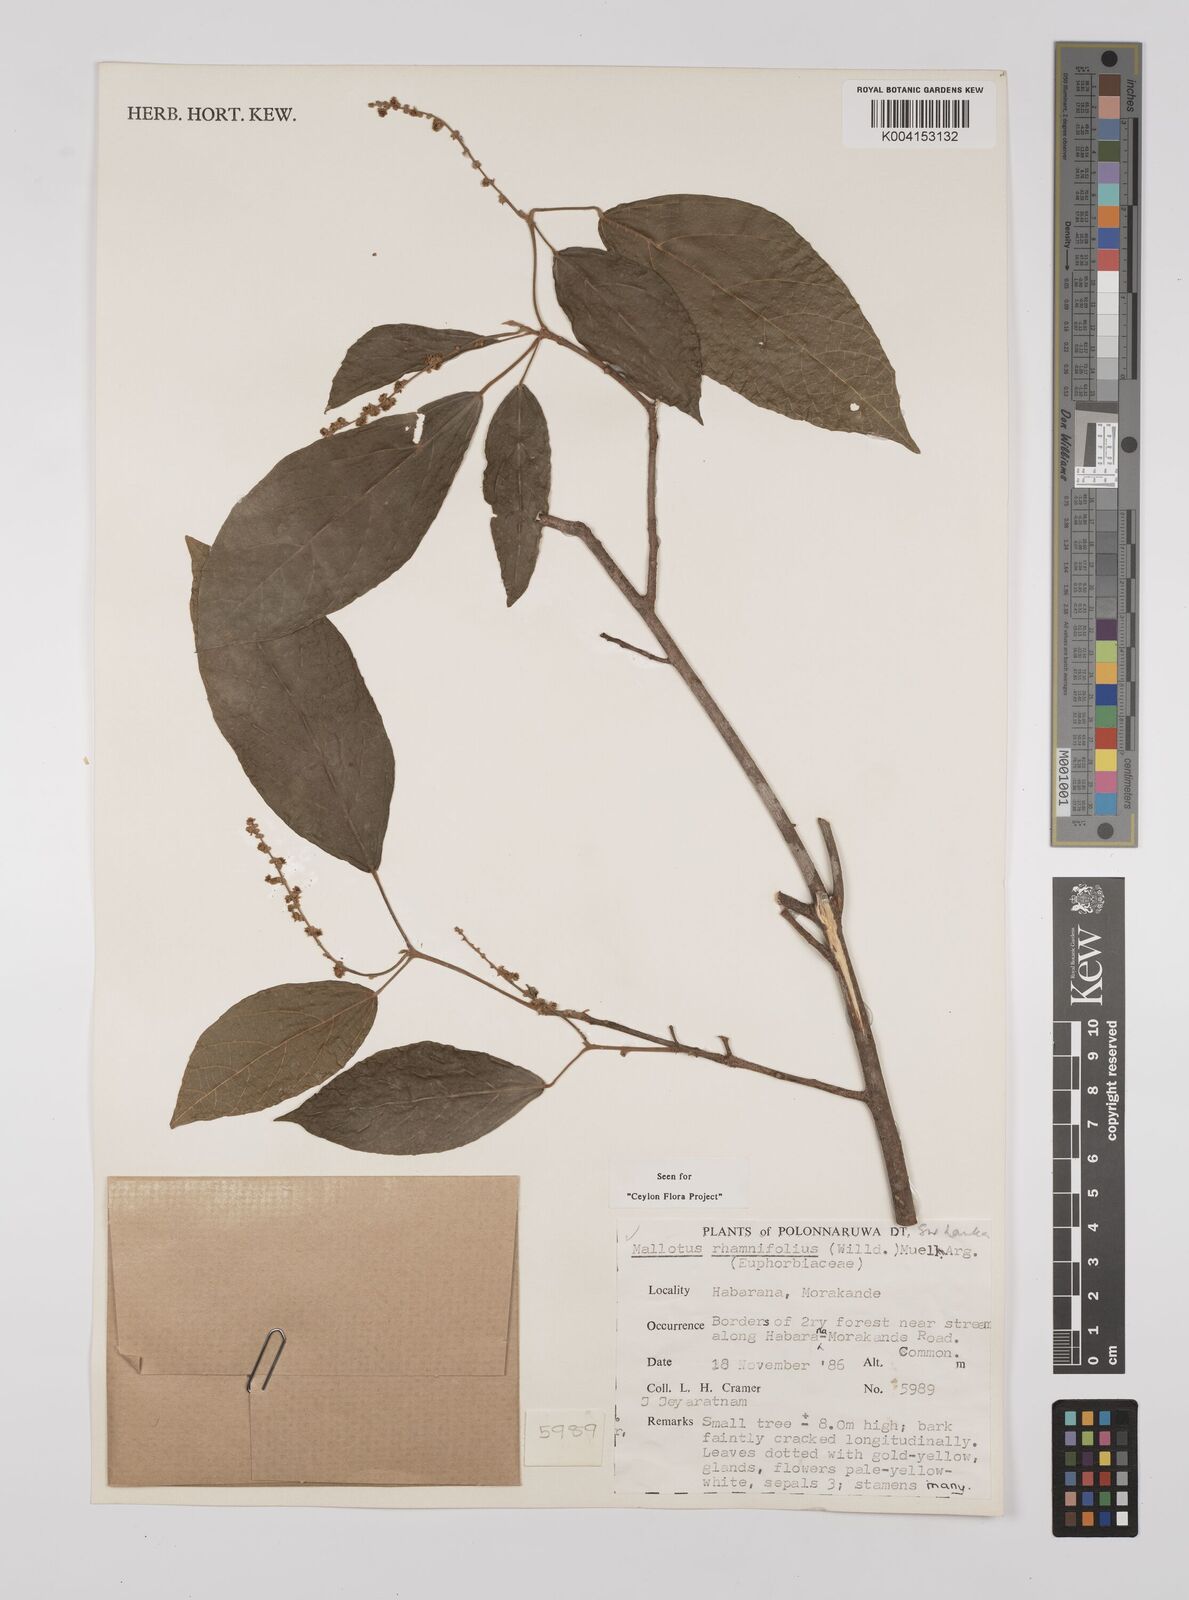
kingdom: Plantae
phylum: Tracheophyta
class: Magnoliopsida
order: Malpighiales
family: Euphorbiaceae
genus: Mallotus
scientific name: Mallotus rhamnifolius
